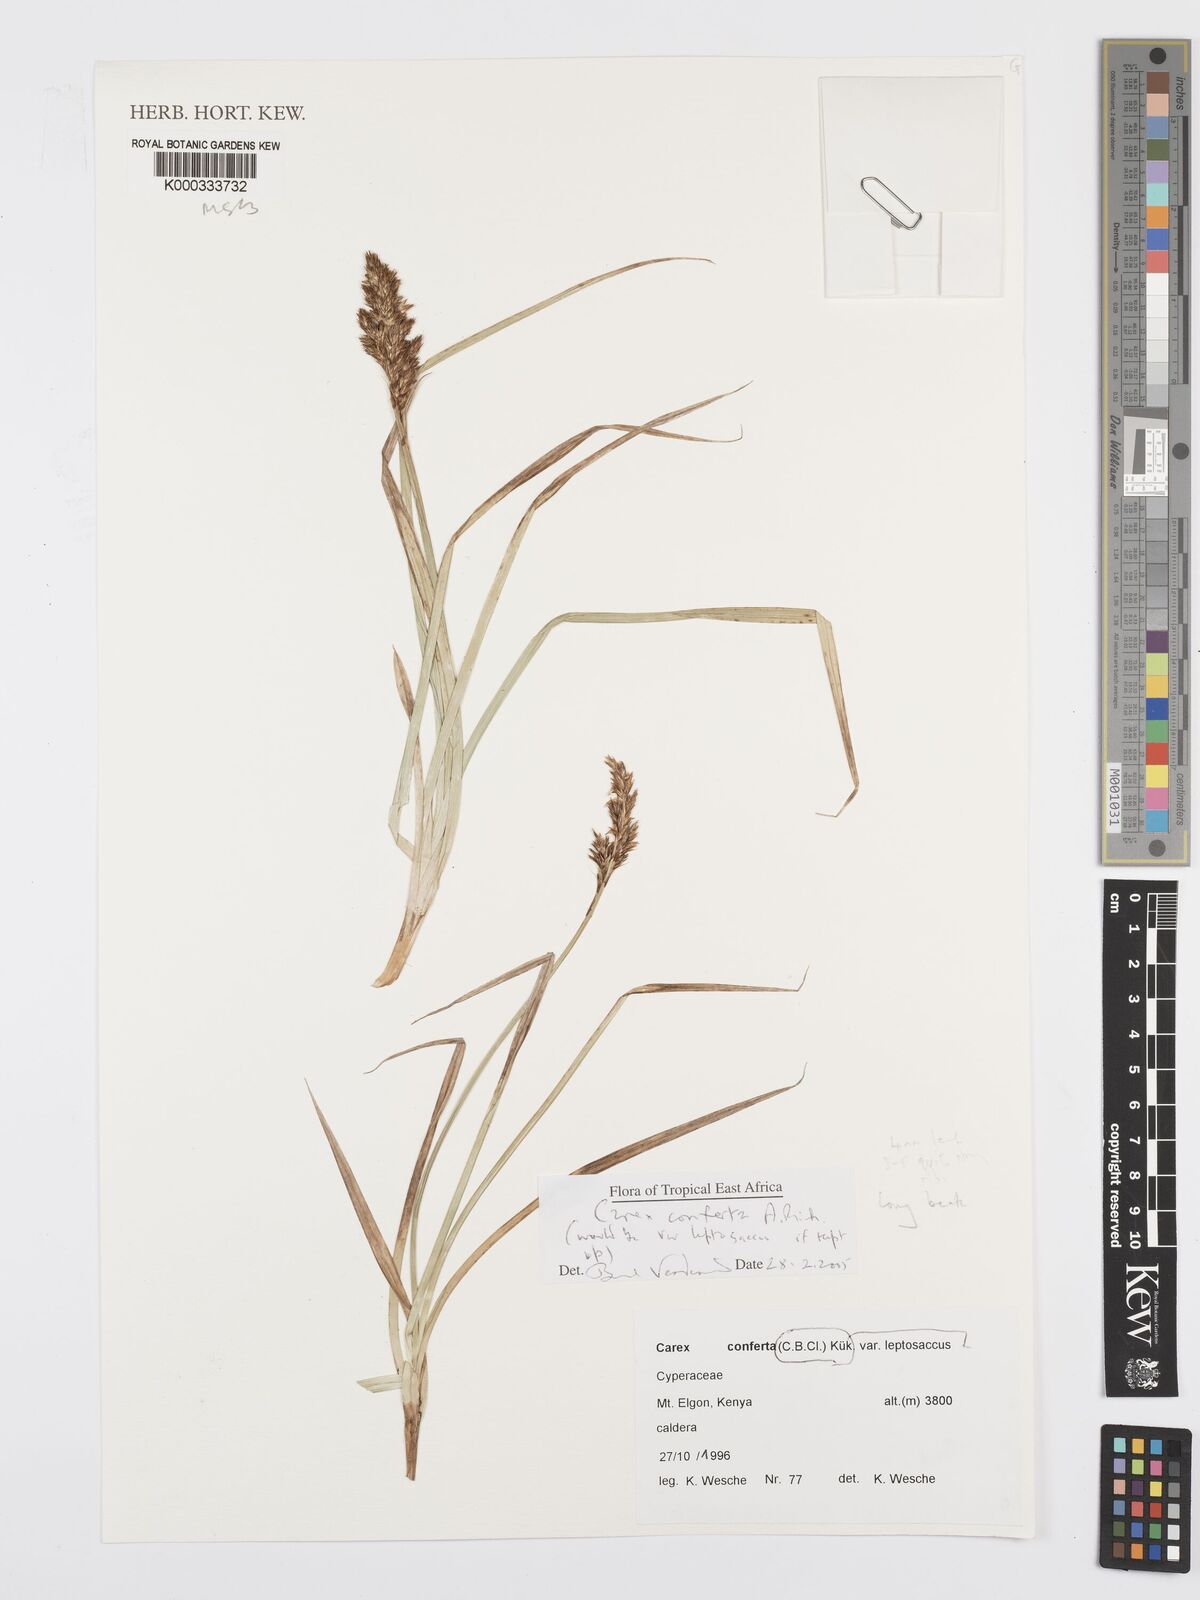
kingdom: Plantae
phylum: Tracheophyta
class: Liliopsida
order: Poales
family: Cyperaceae
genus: Carex
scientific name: Carex conferta
